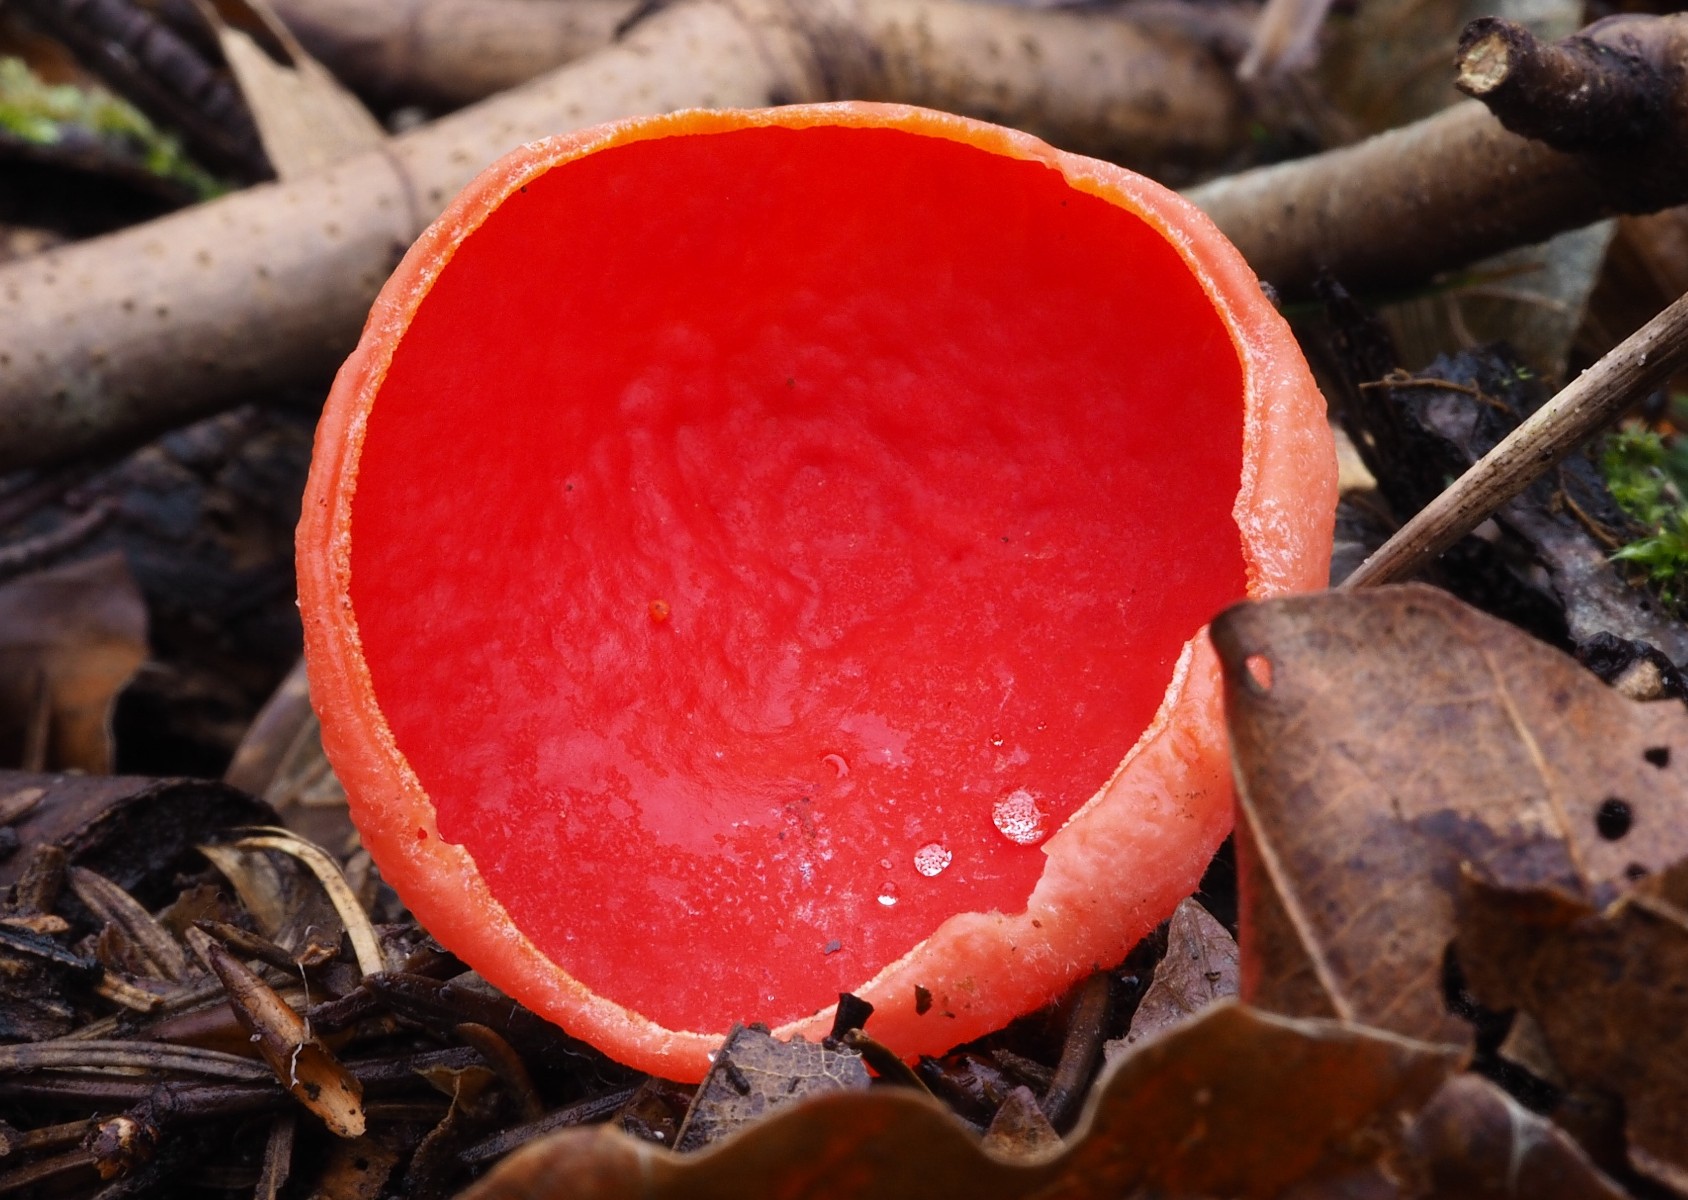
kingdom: Fungi
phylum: Ascomycota
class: Pezizomycetes
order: Pezizales
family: Sarcoscyphaceae
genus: Sarcoscypha
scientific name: Sarcoscypha coccinea
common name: skarlagen-pragtbæger
